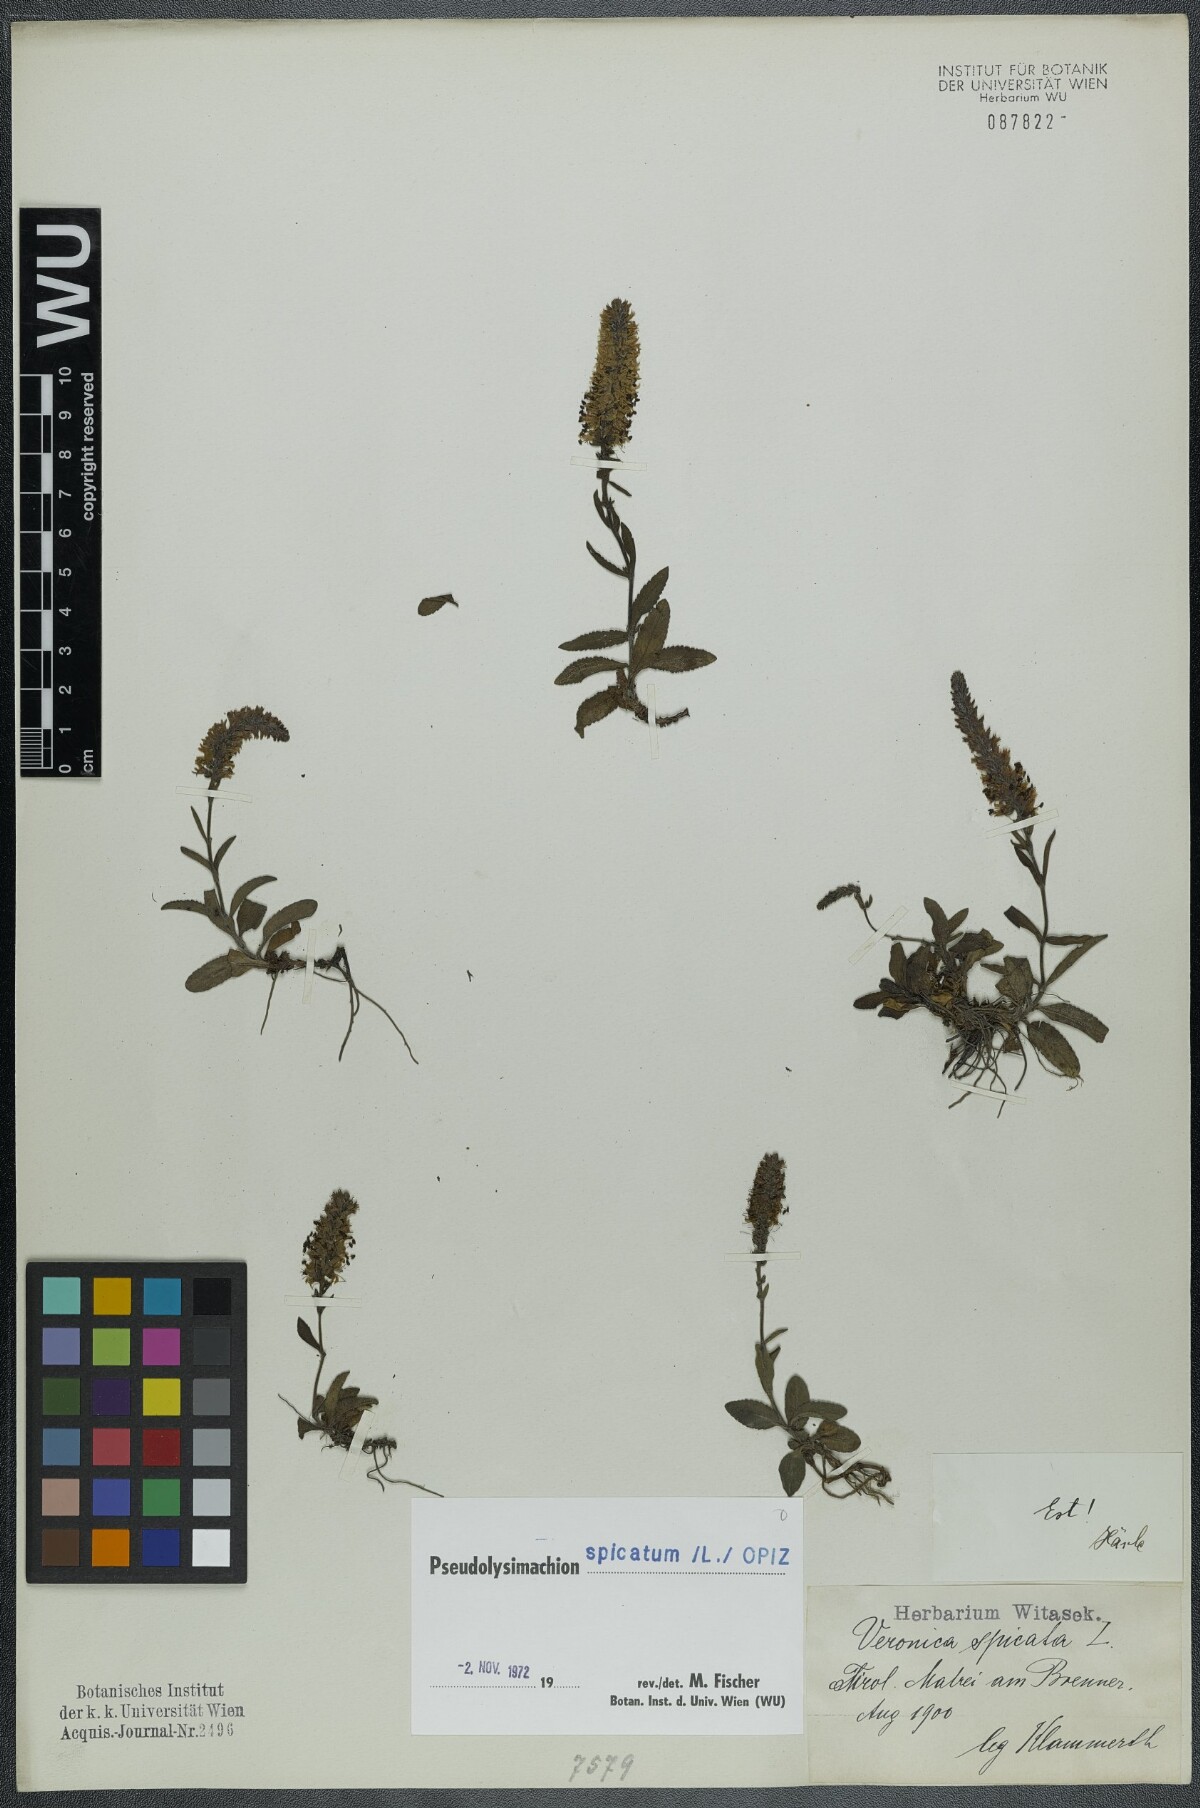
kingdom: Plantae
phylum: Tracheophyta
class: Magnoliopsida
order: Lamiales
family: Plantaginaceae
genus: Veronica
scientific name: Veronica spicata
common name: Spiked speedwell
